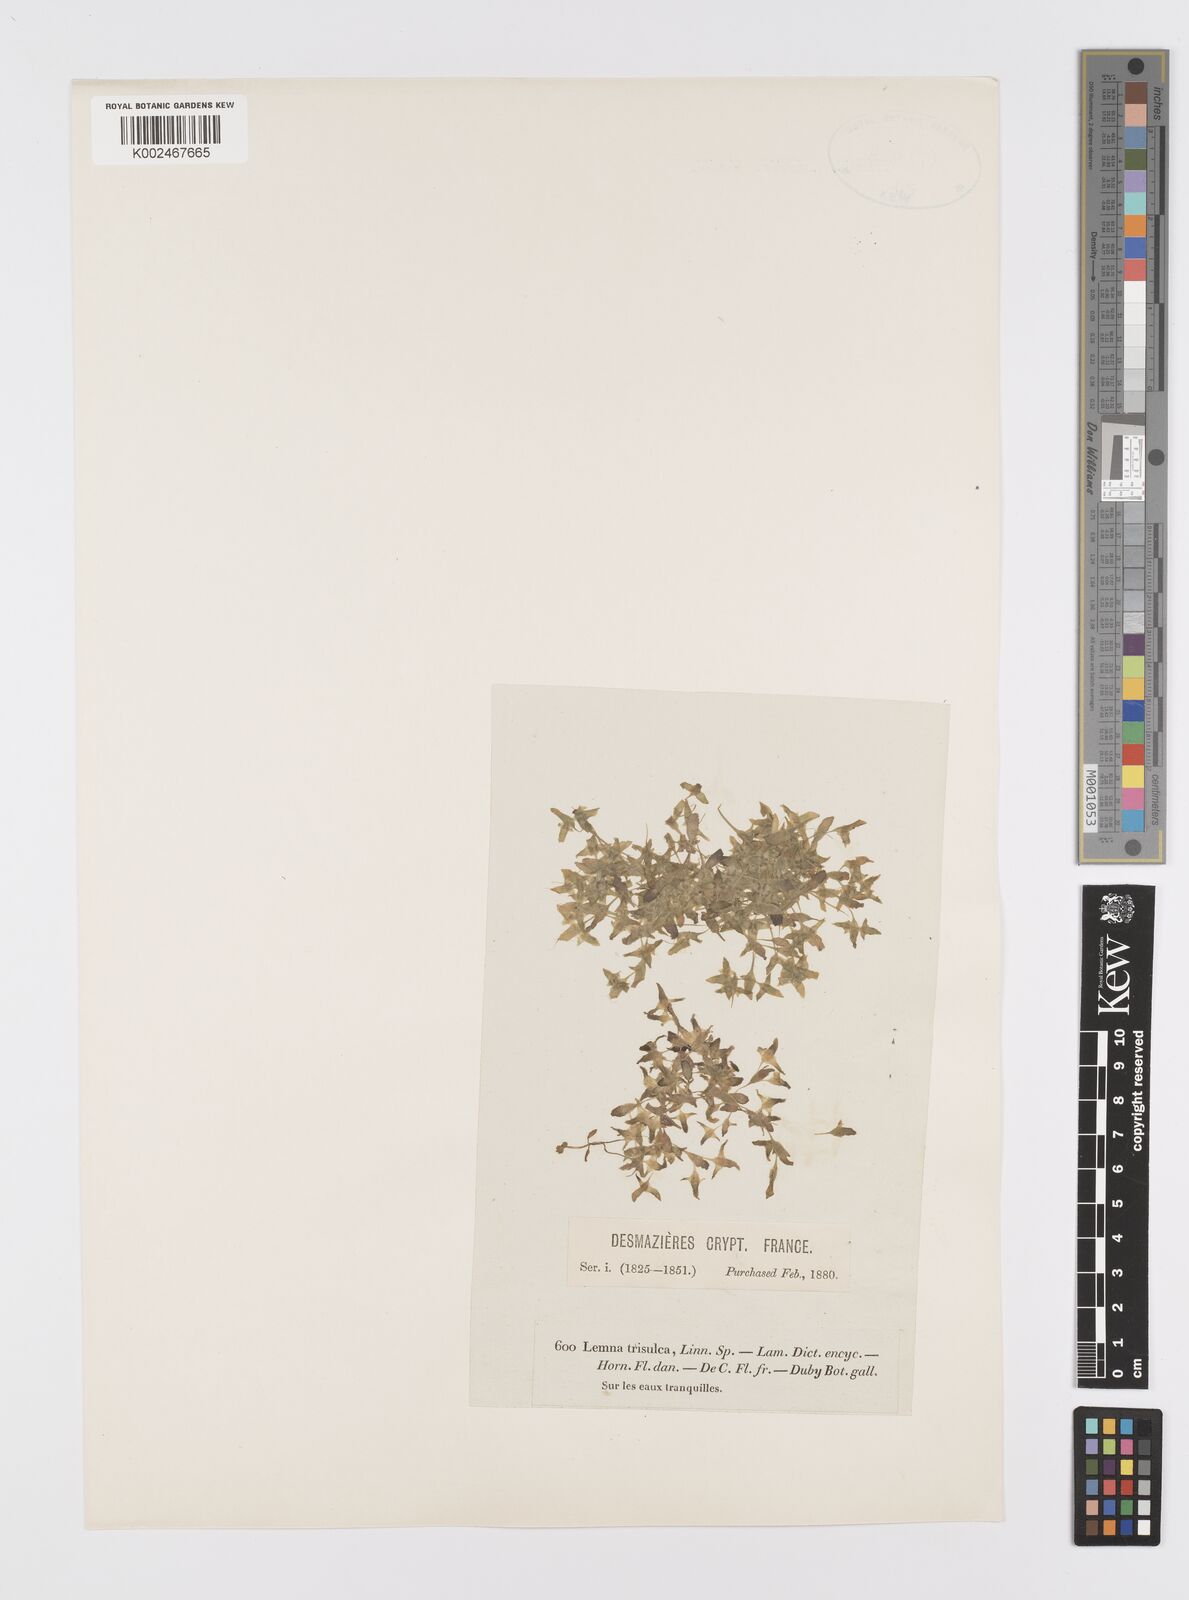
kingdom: Plantae
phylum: Tracheophyta
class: Liliopsida
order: Alismatales
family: Araceae
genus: Lemna
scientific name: Lemna trisulca
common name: Ivy-leaved duckweed
